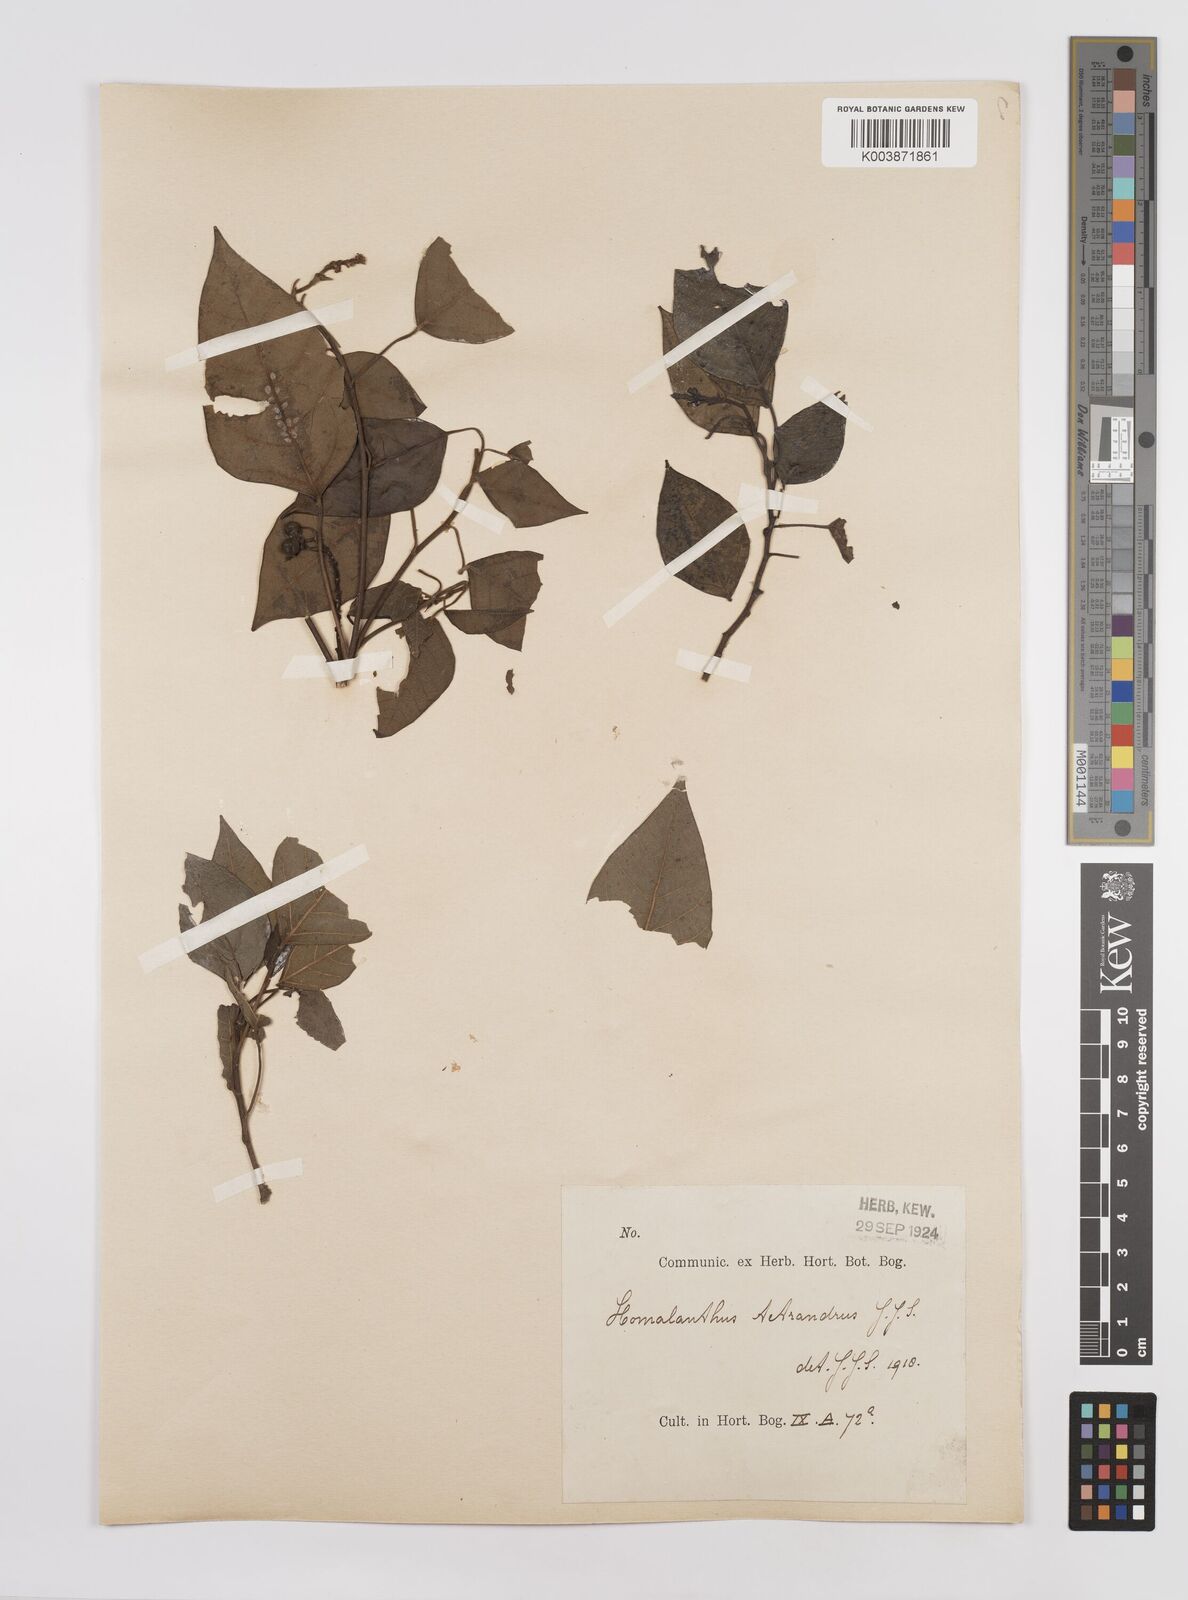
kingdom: Plantae
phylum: Tracheophyta
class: Magnoliopsida
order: Malpighiales
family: Euphorbiaceae
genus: Homalanthus
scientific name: Homalanthus novoguineensis
